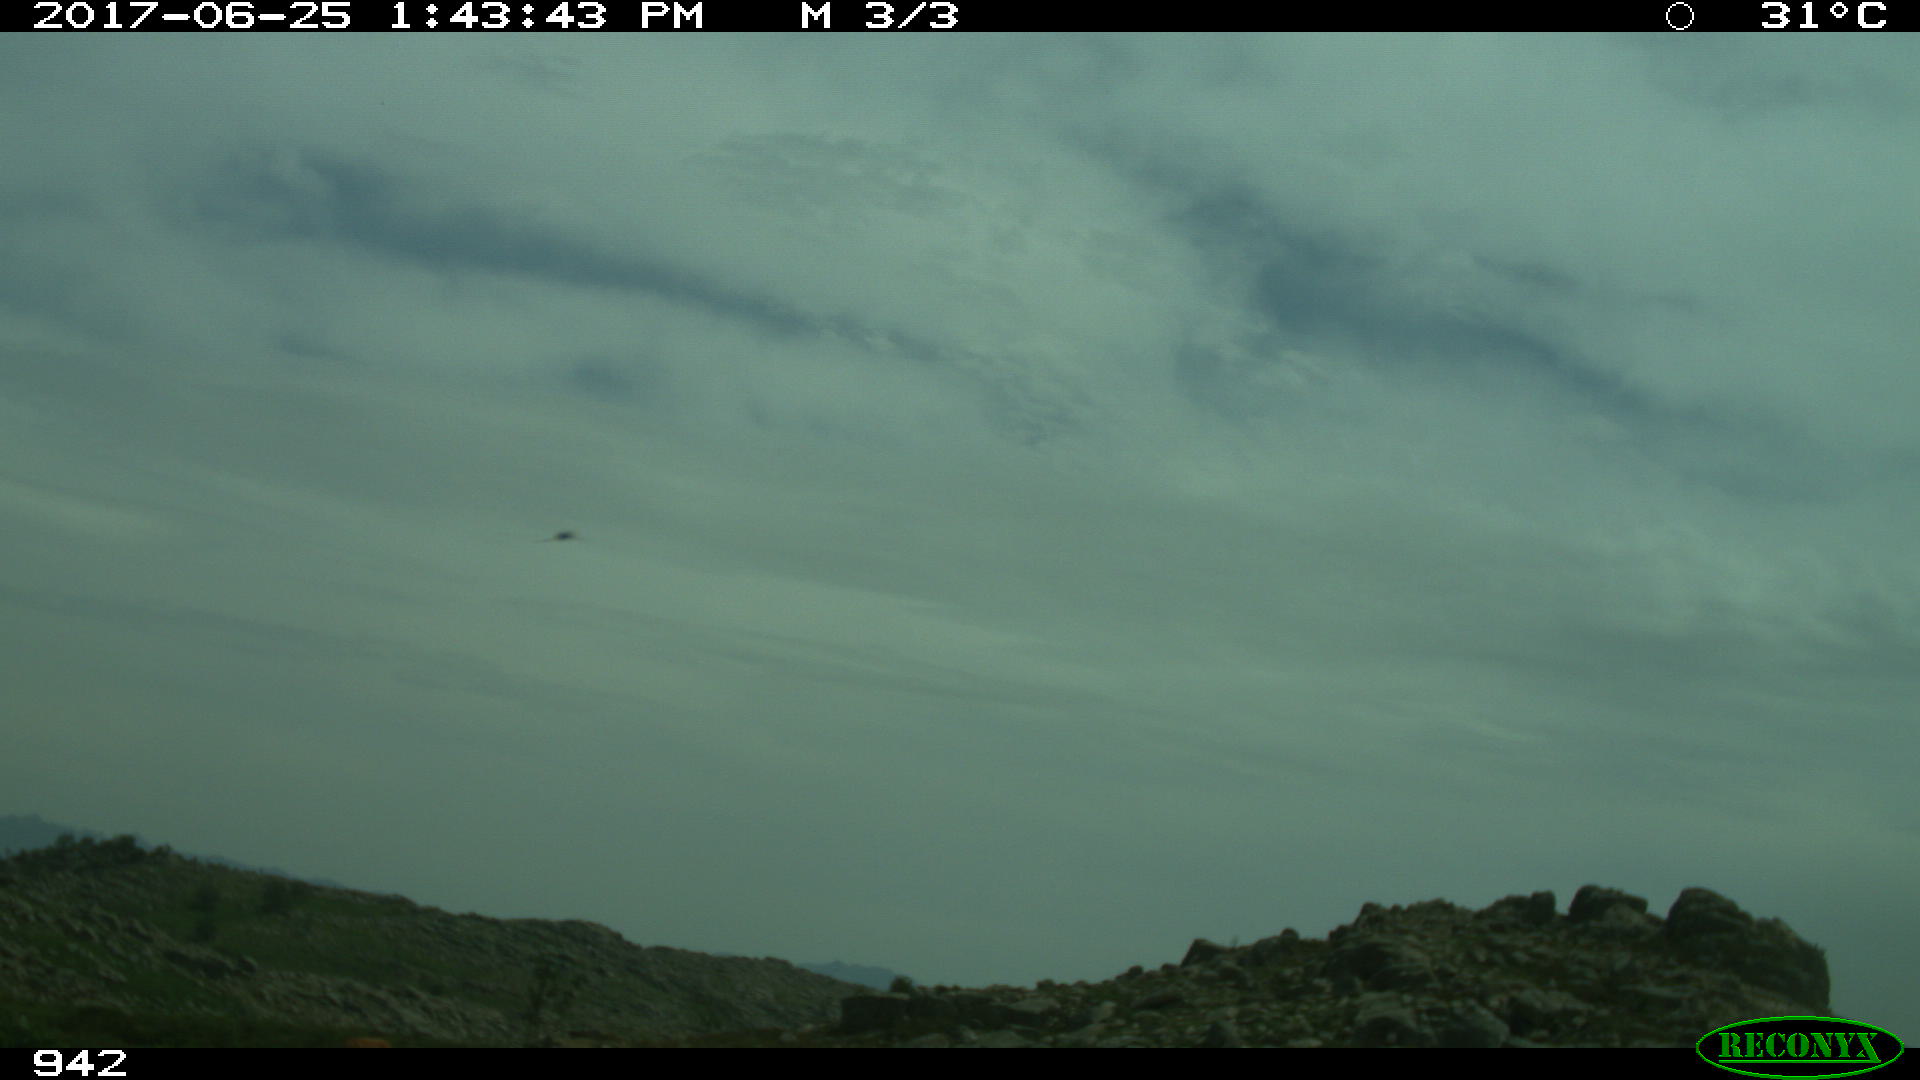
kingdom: Animalia
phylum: Chordata
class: Mammalia
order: Perissodactyla
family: Equidae
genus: Equus
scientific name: Equus caballus
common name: Horse
